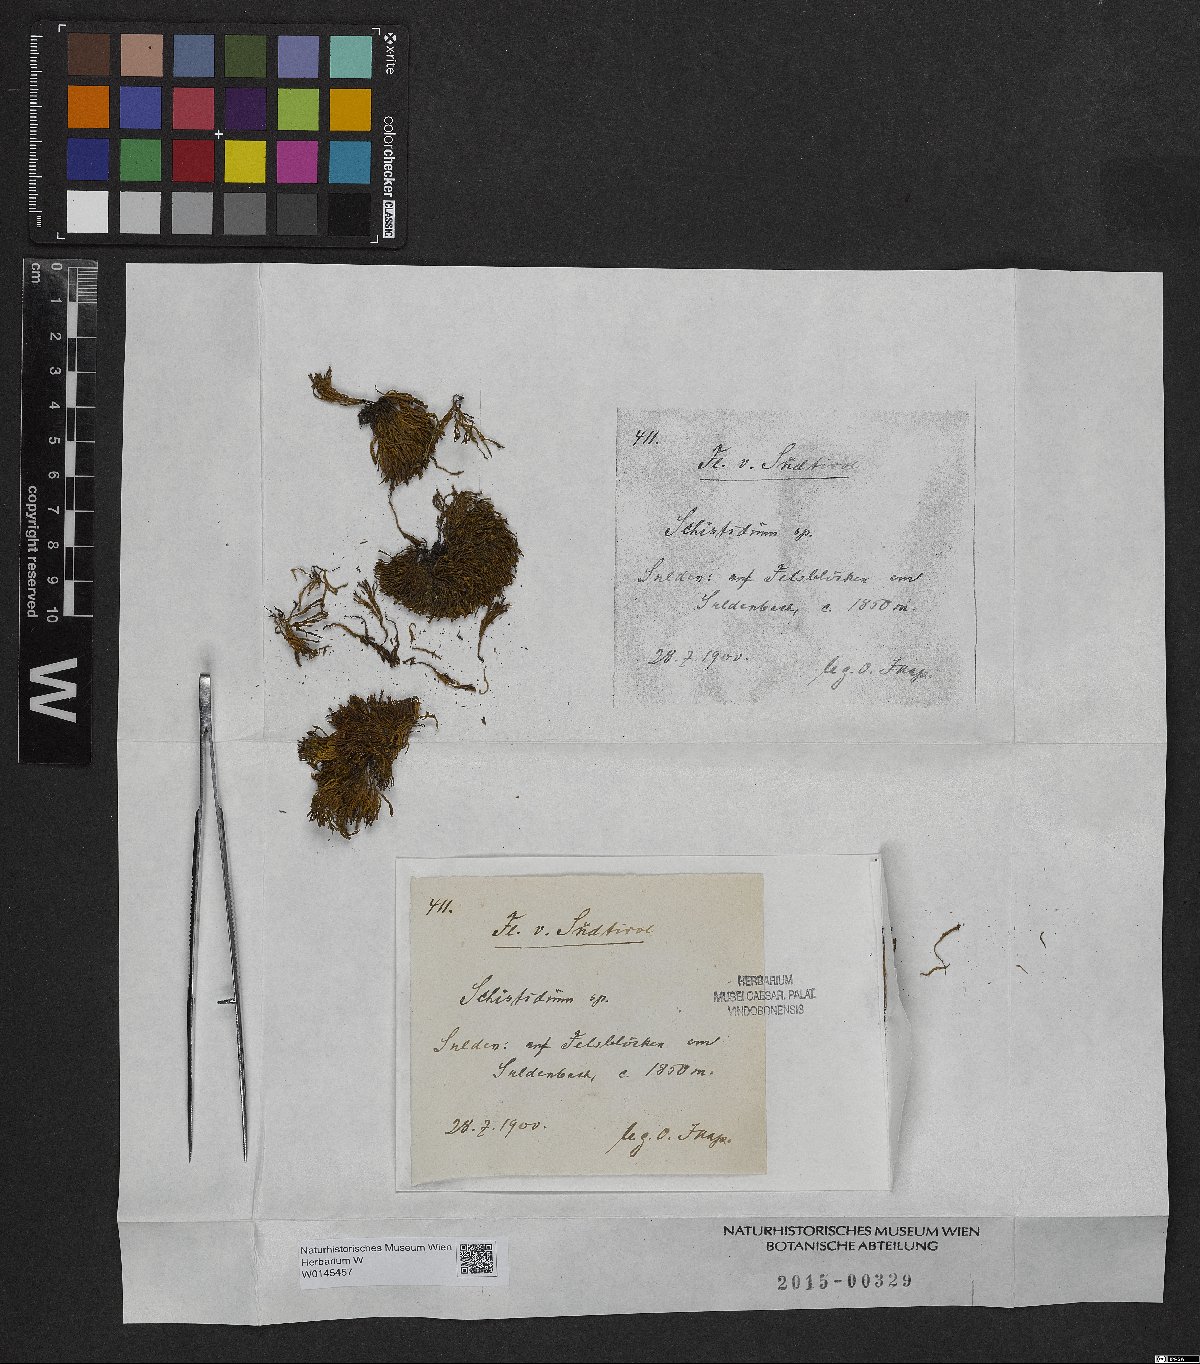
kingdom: Plantae
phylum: Bryophyta
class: Bryopsida
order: Grimmiales
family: Grimmiaceae
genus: Schistidium
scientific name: Schistidium
